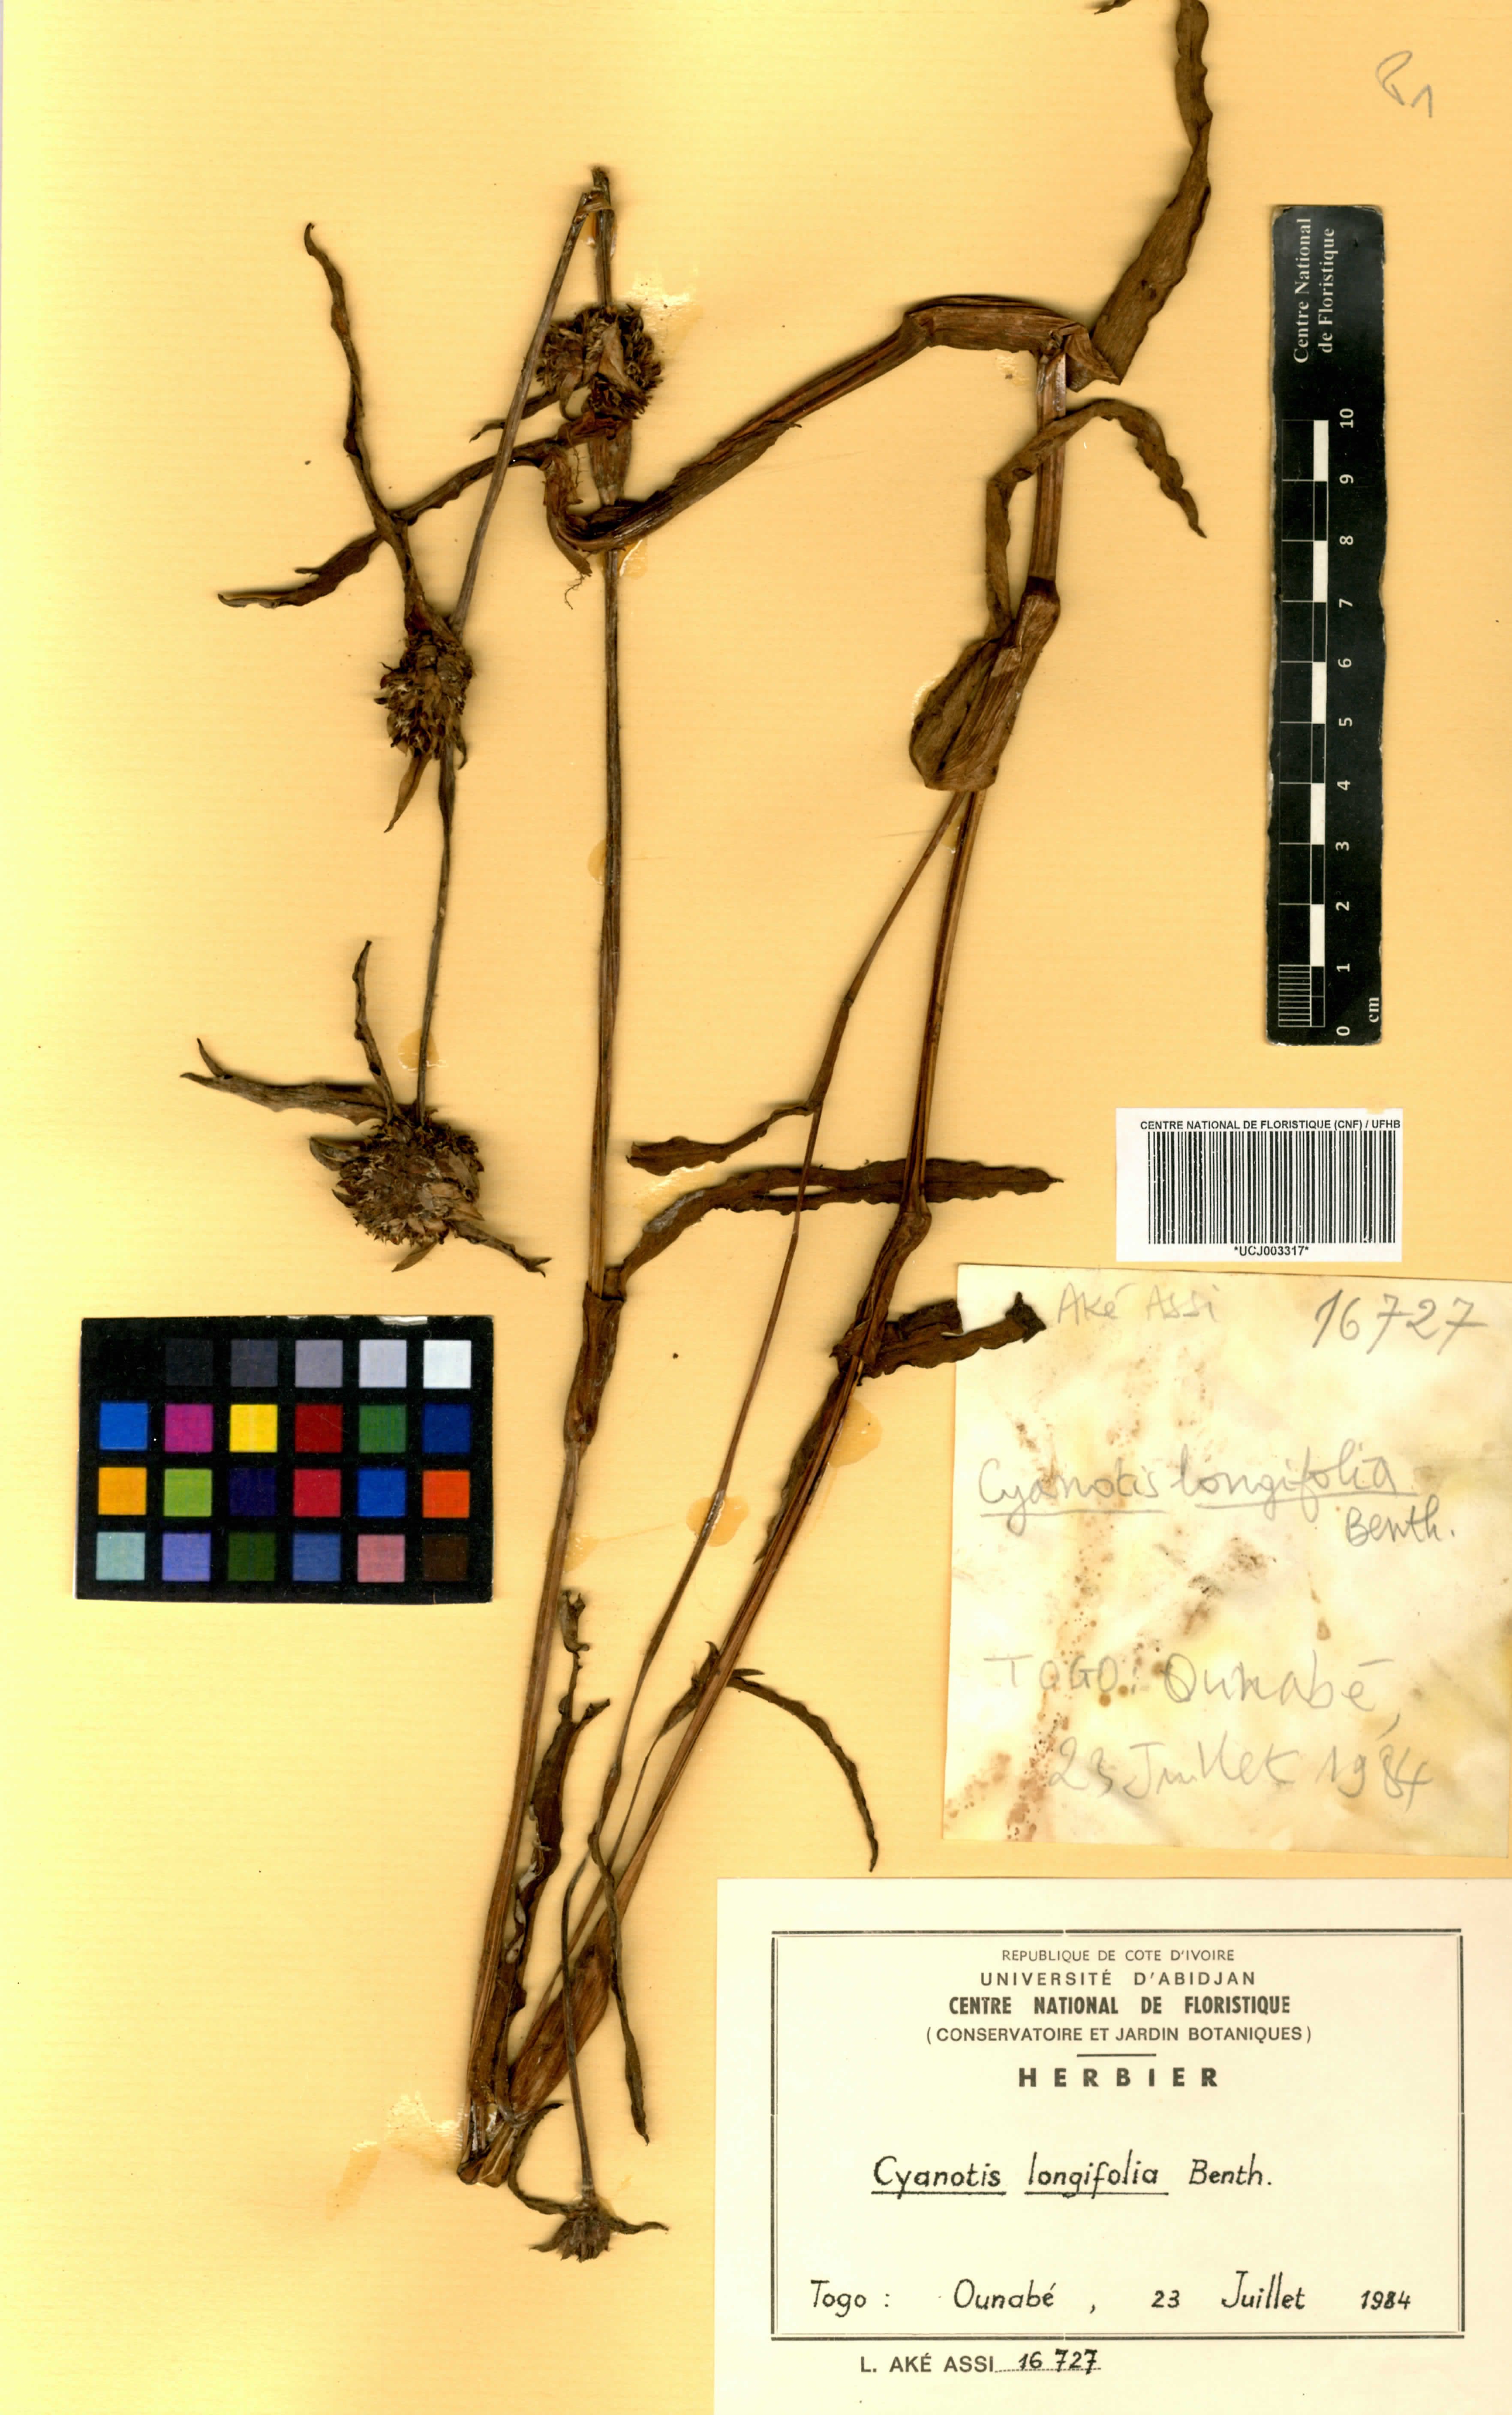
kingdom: Plantae
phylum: Tracheophyta
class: Liliopsida
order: Commelinales
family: Commelinaceae
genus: Cyanotis
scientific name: Cyanotis longifolia
